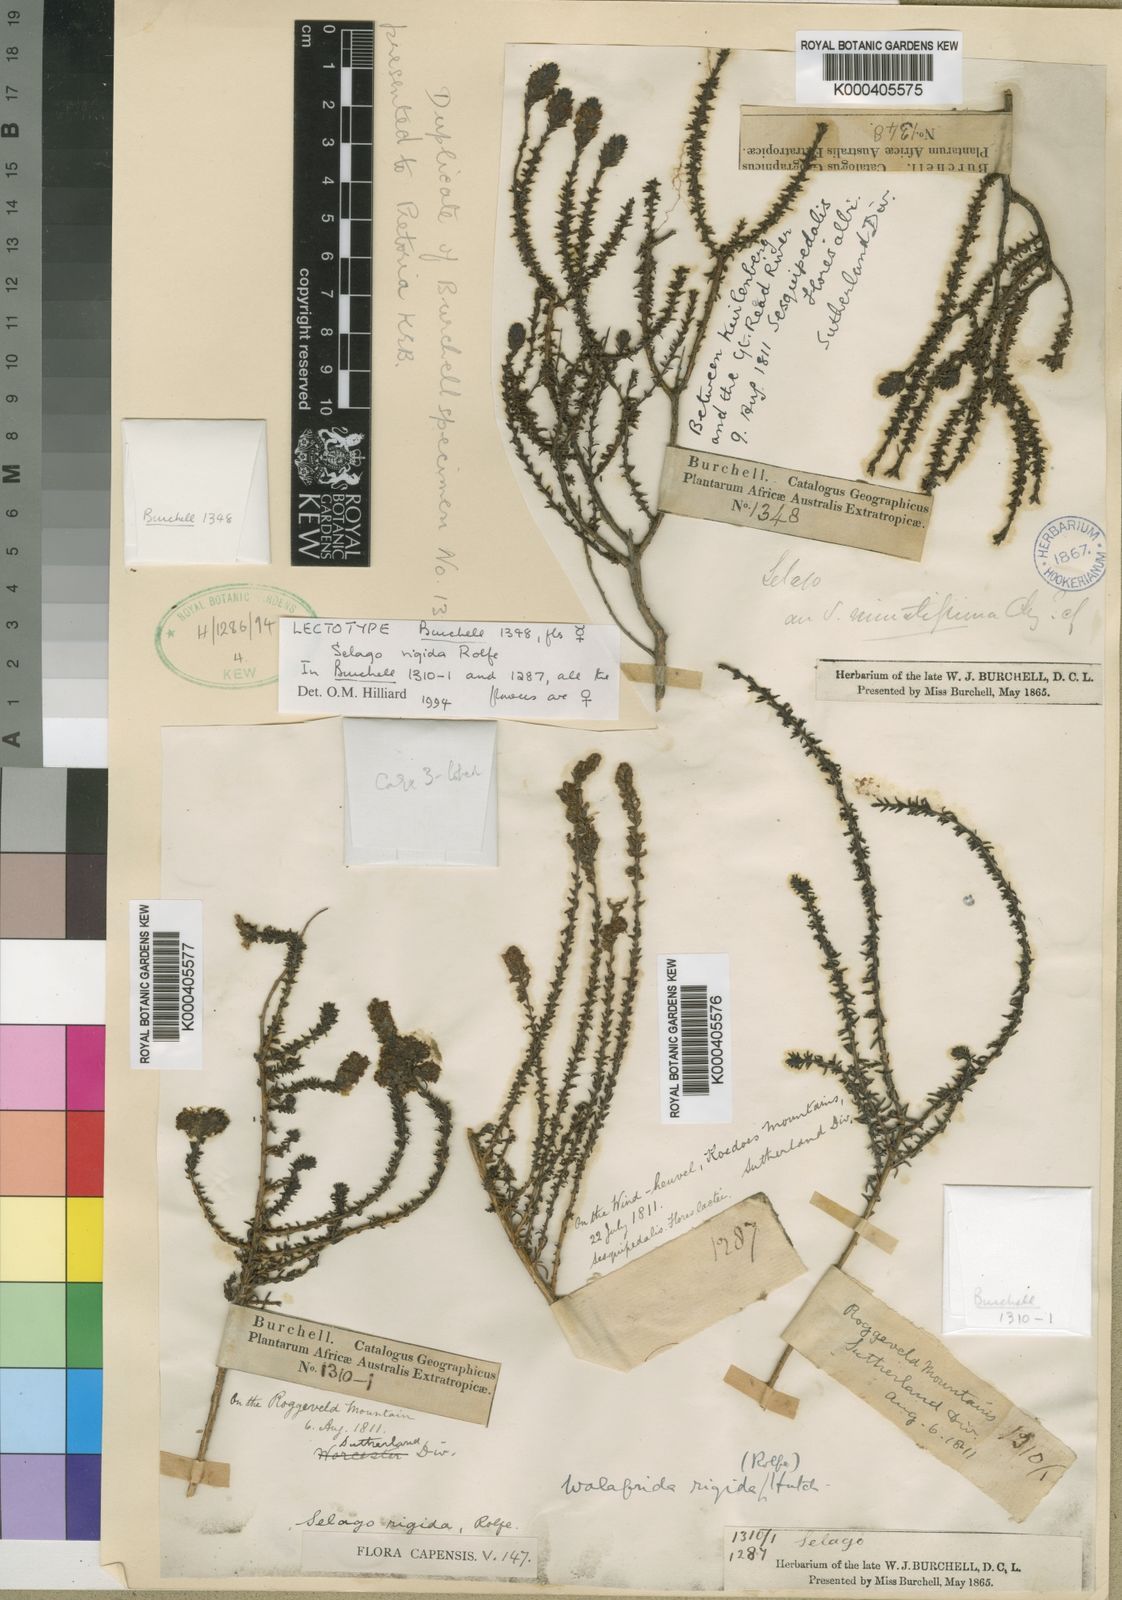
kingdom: Plantae
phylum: Tracheophyta
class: Magnoliopsida
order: Lamiales
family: Scrophulariaceae
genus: Selago
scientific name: Selago rigida
